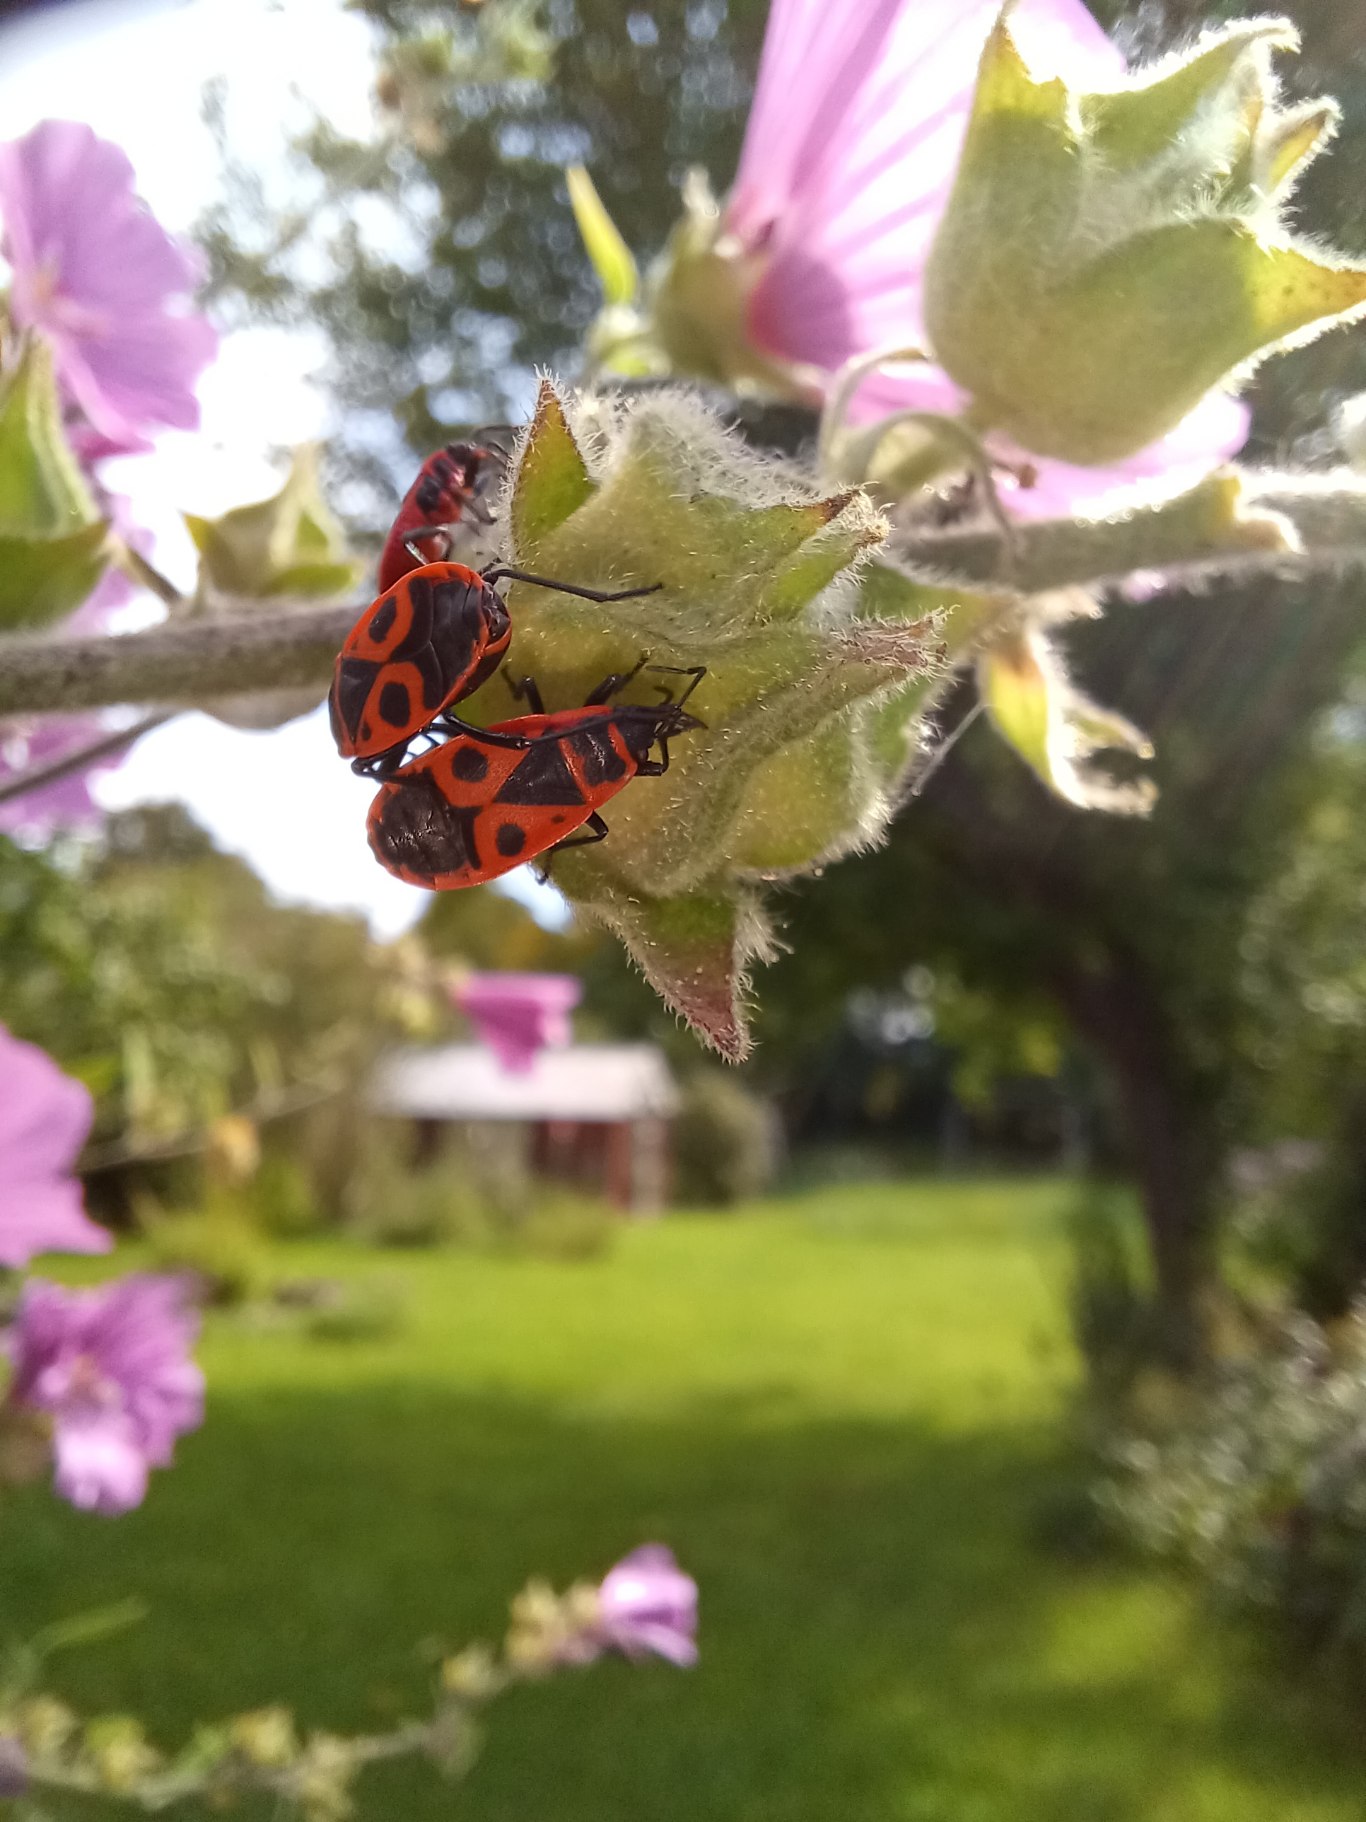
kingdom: Animalia
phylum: Arthropoda
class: Insecta
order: Hemiptera
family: Pyrrhocoridae
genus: Pyrrhocoris
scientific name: Pyrrhocoris apterus
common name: Ildtæge
